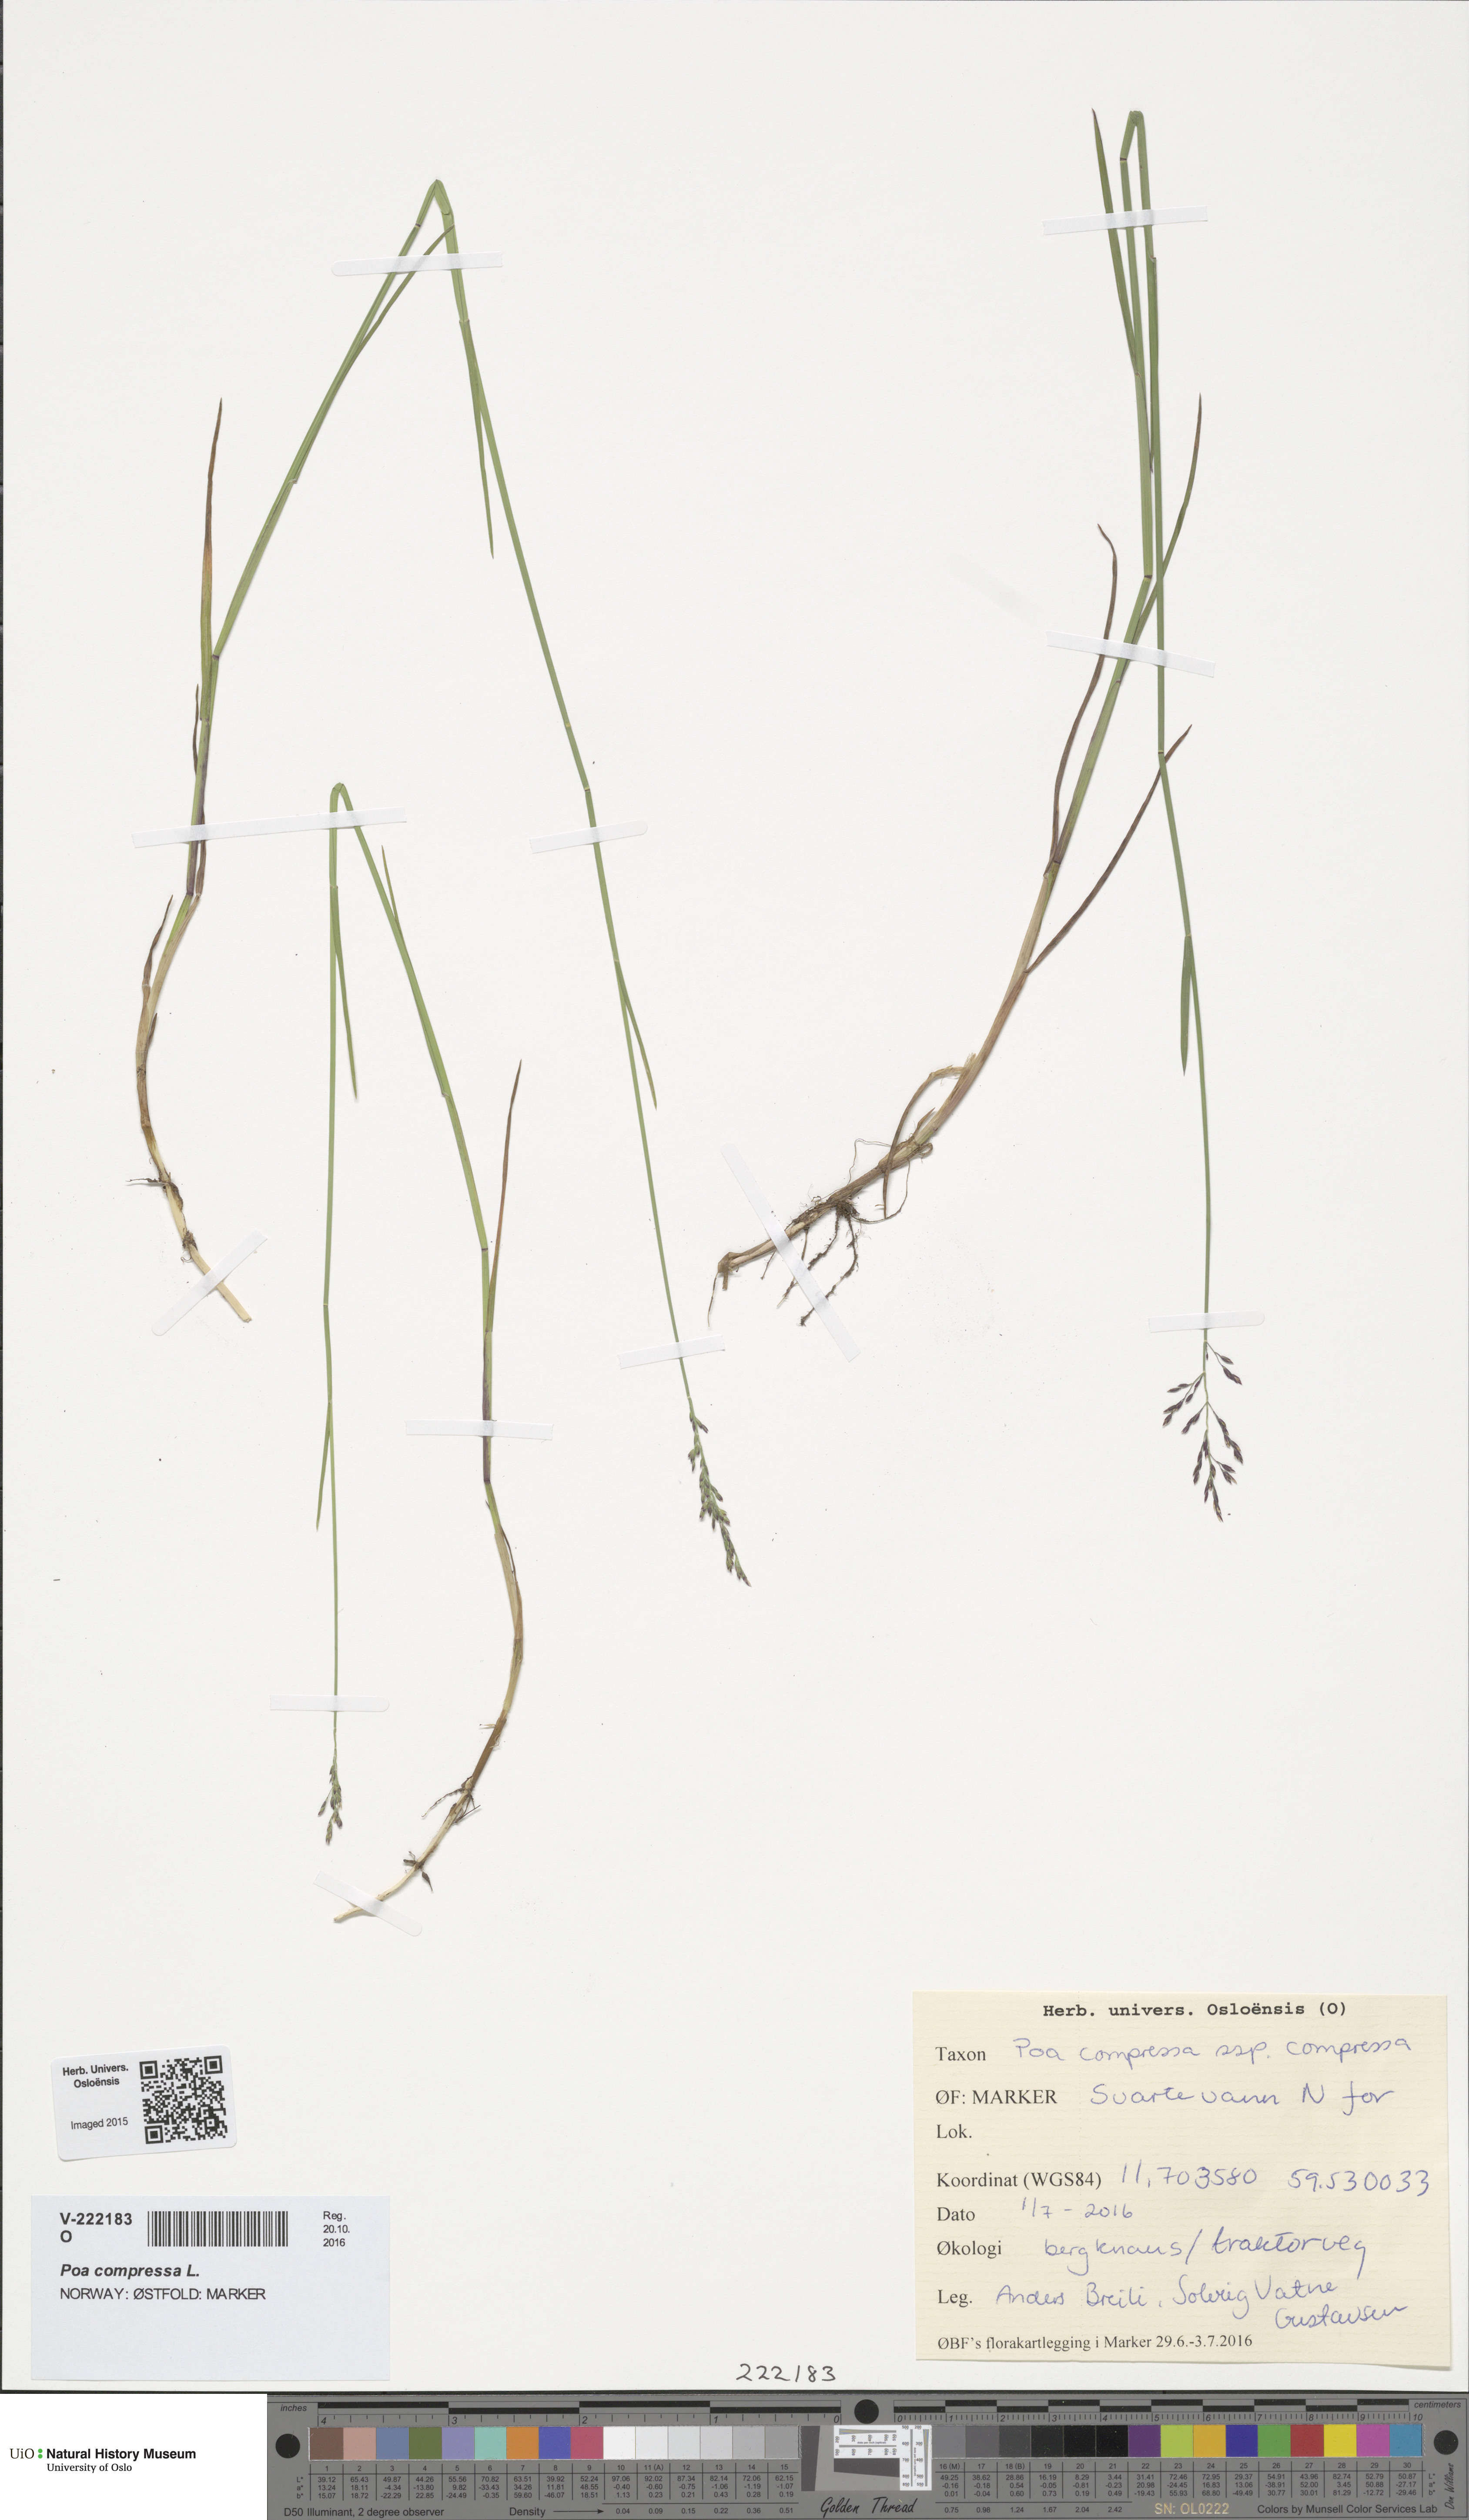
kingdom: Plantae
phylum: Tracheophyta
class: Liliopsida
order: Poales
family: Poaceae
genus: Poa
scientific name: Poa compressa
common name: Canada bluegrass
